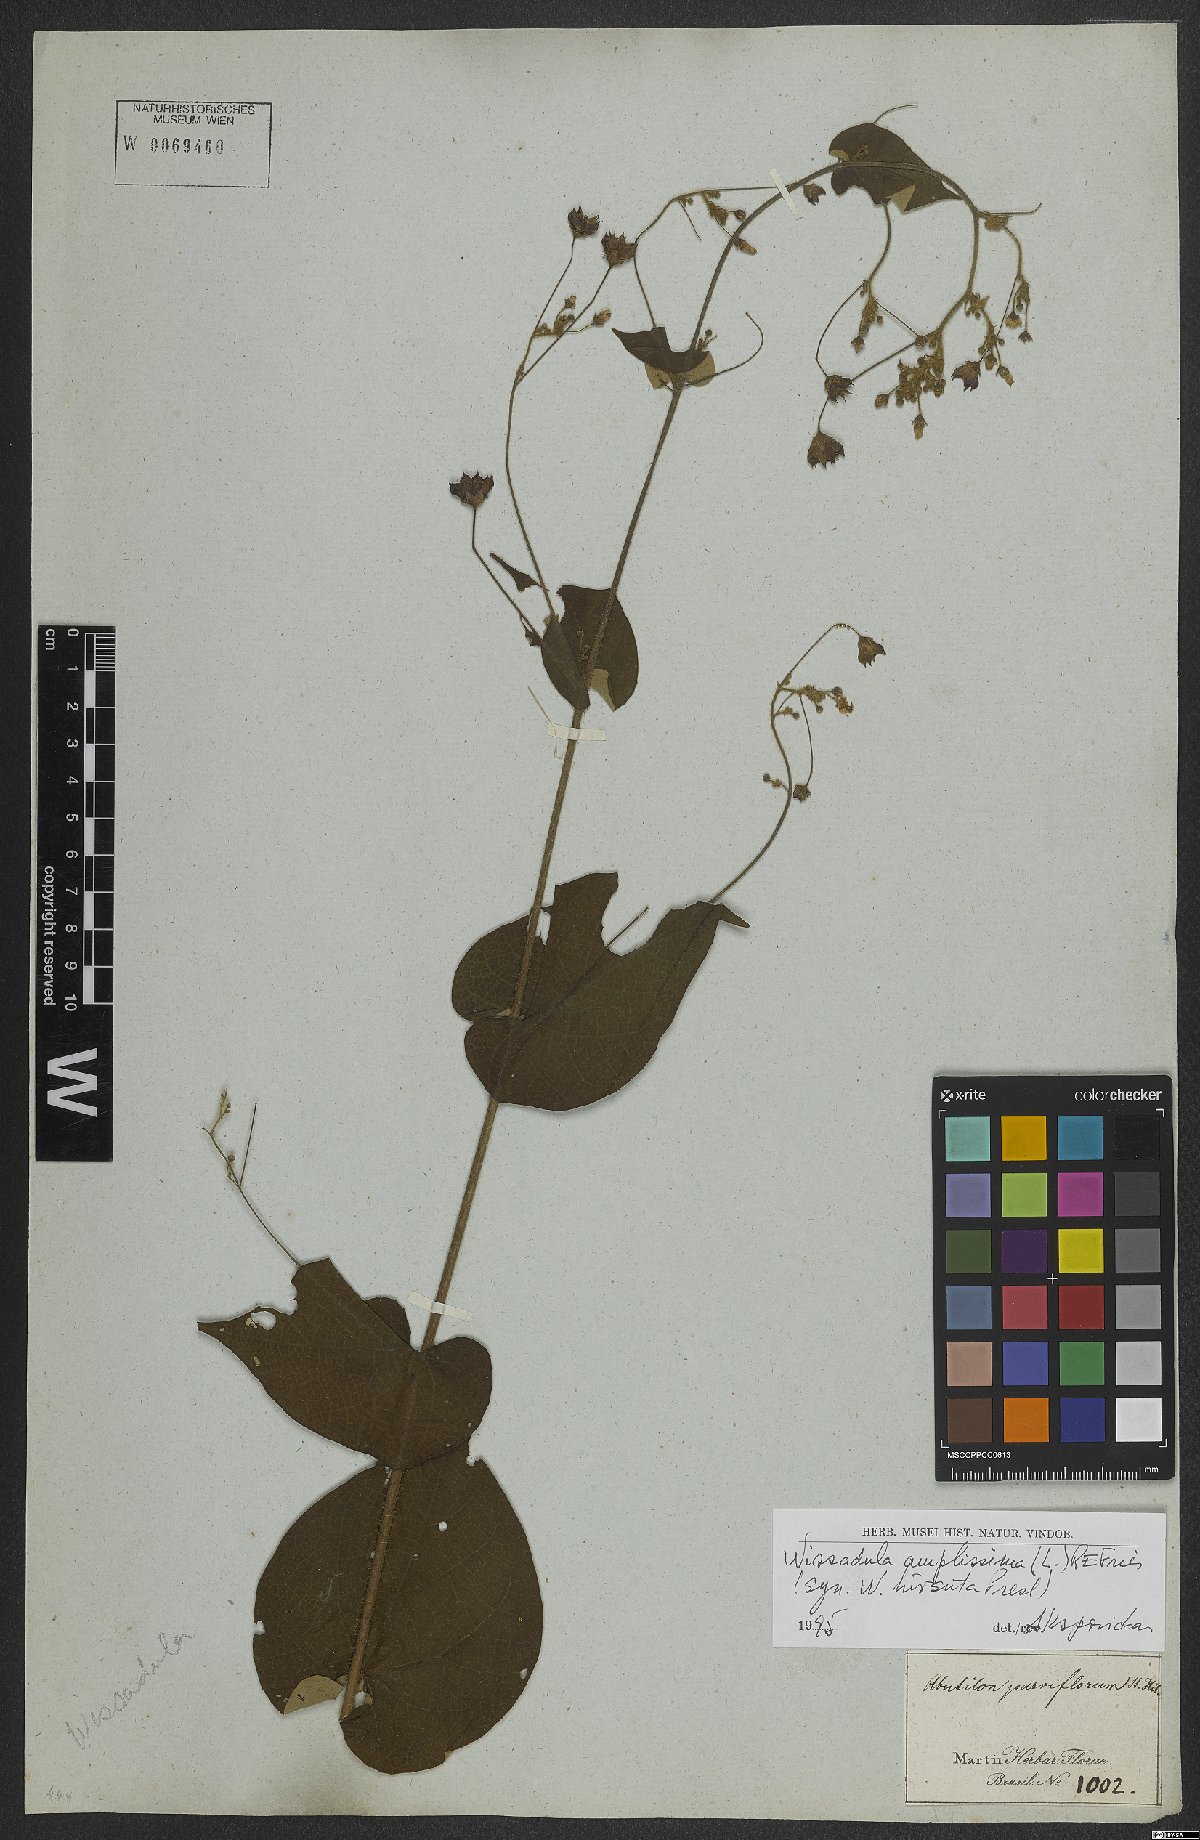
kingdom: Plantae
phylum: Tracheophyta
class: Magnoliopsida
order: Malvales
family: Malvaceae
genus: Wissadula
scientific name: Wissadula amplissima
